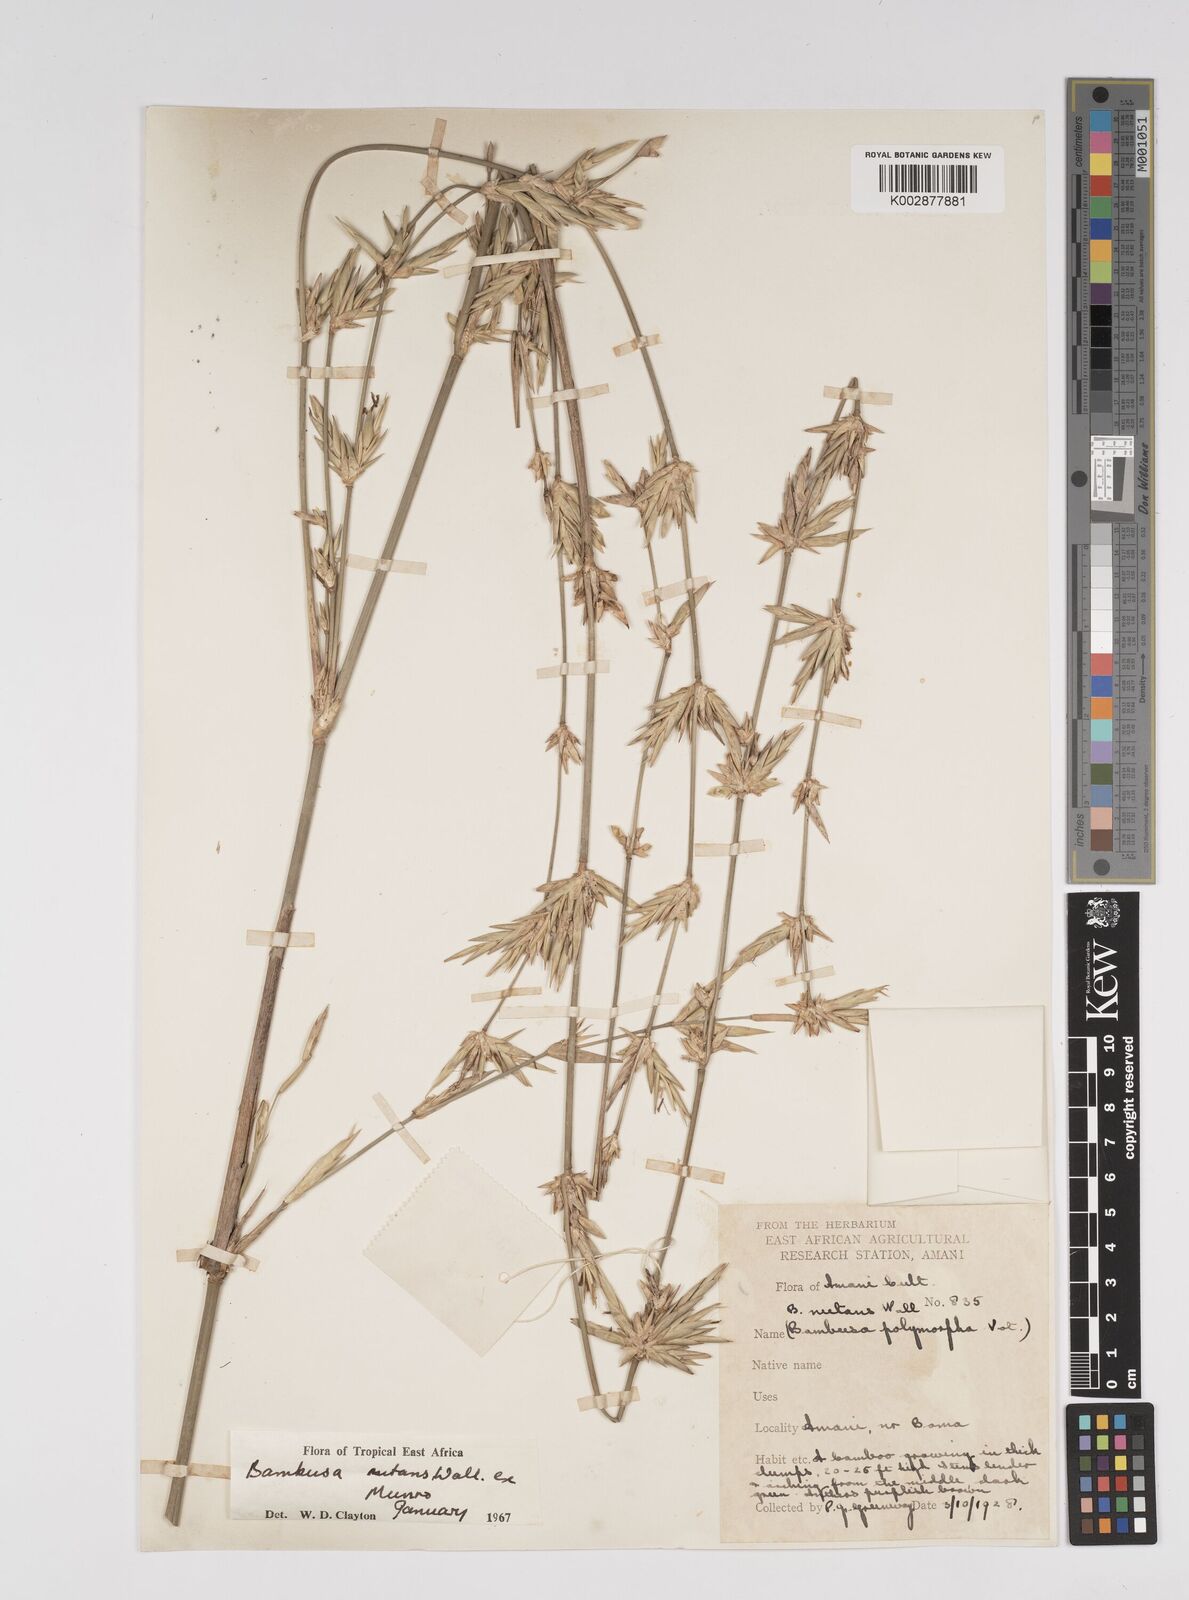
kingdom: Plantae
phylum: Tracheophyta
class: Liliopsida
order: Poales
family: Poaceae
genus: Bambusa
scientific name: Bambusa nutans
